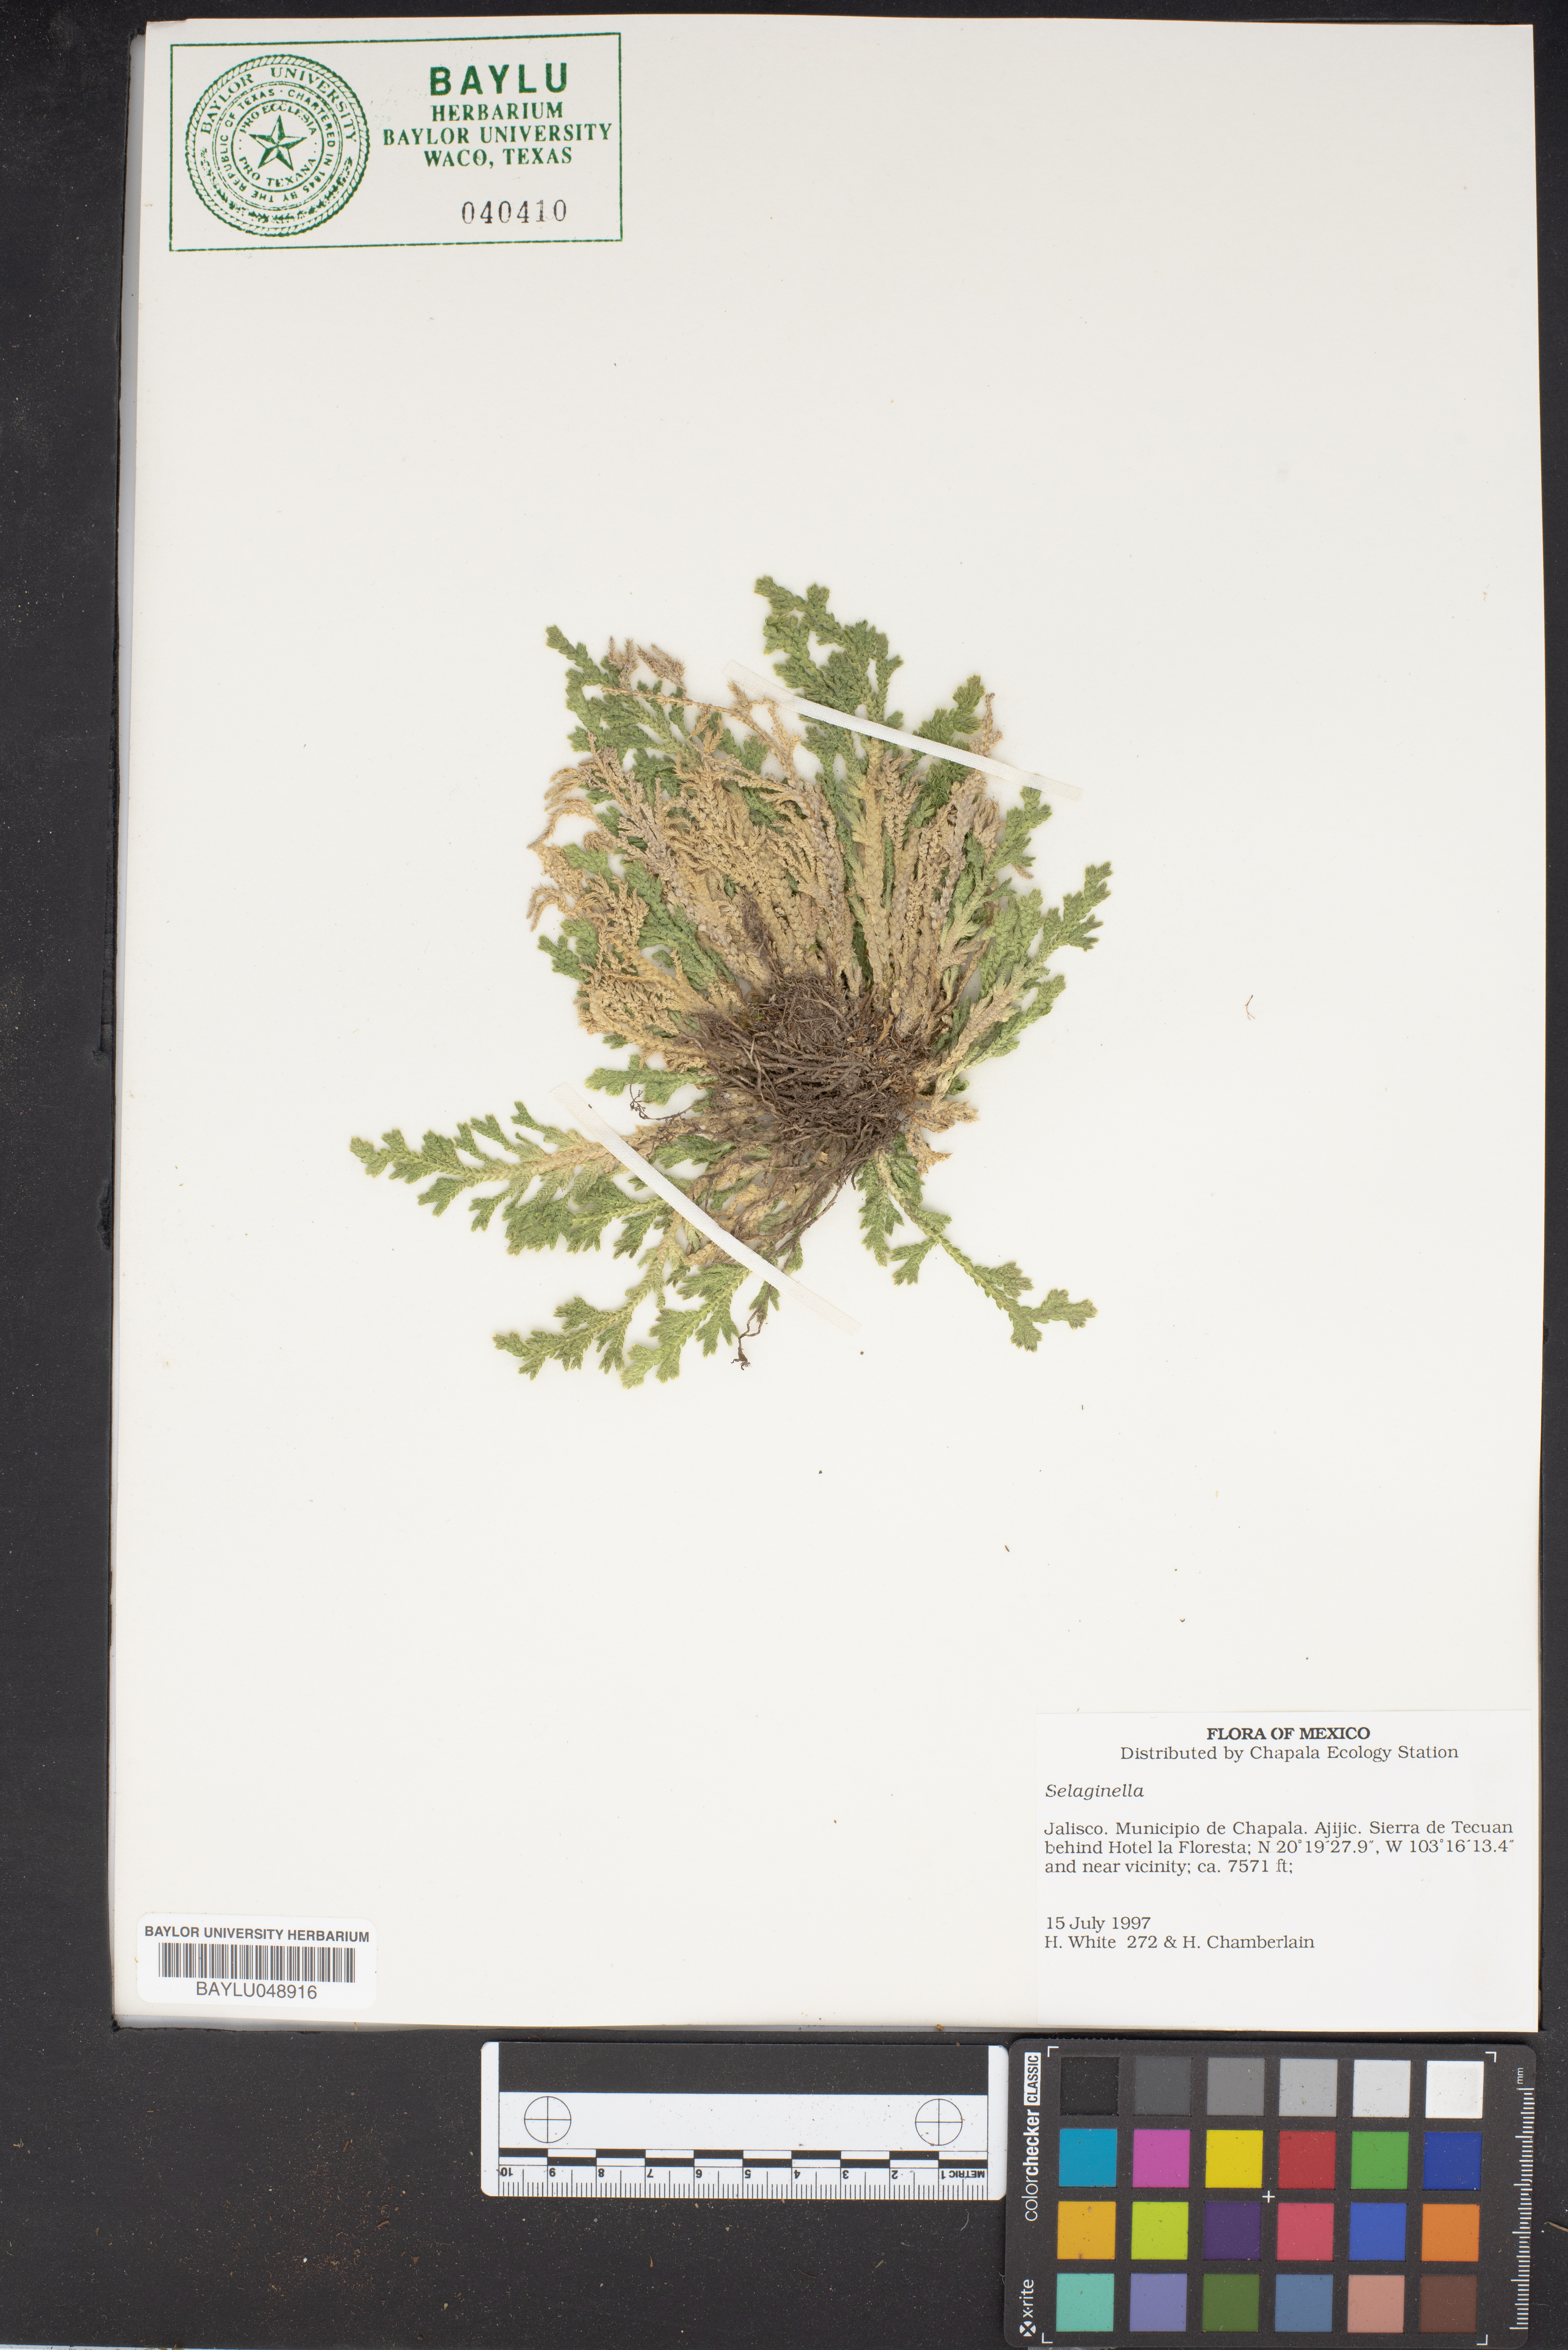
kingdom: Plantae
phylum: Tracheophyta
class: Lycopodiopsida
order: Selaginellales
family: Selaginellaceae
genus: Selaginella
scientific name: Selaginella
